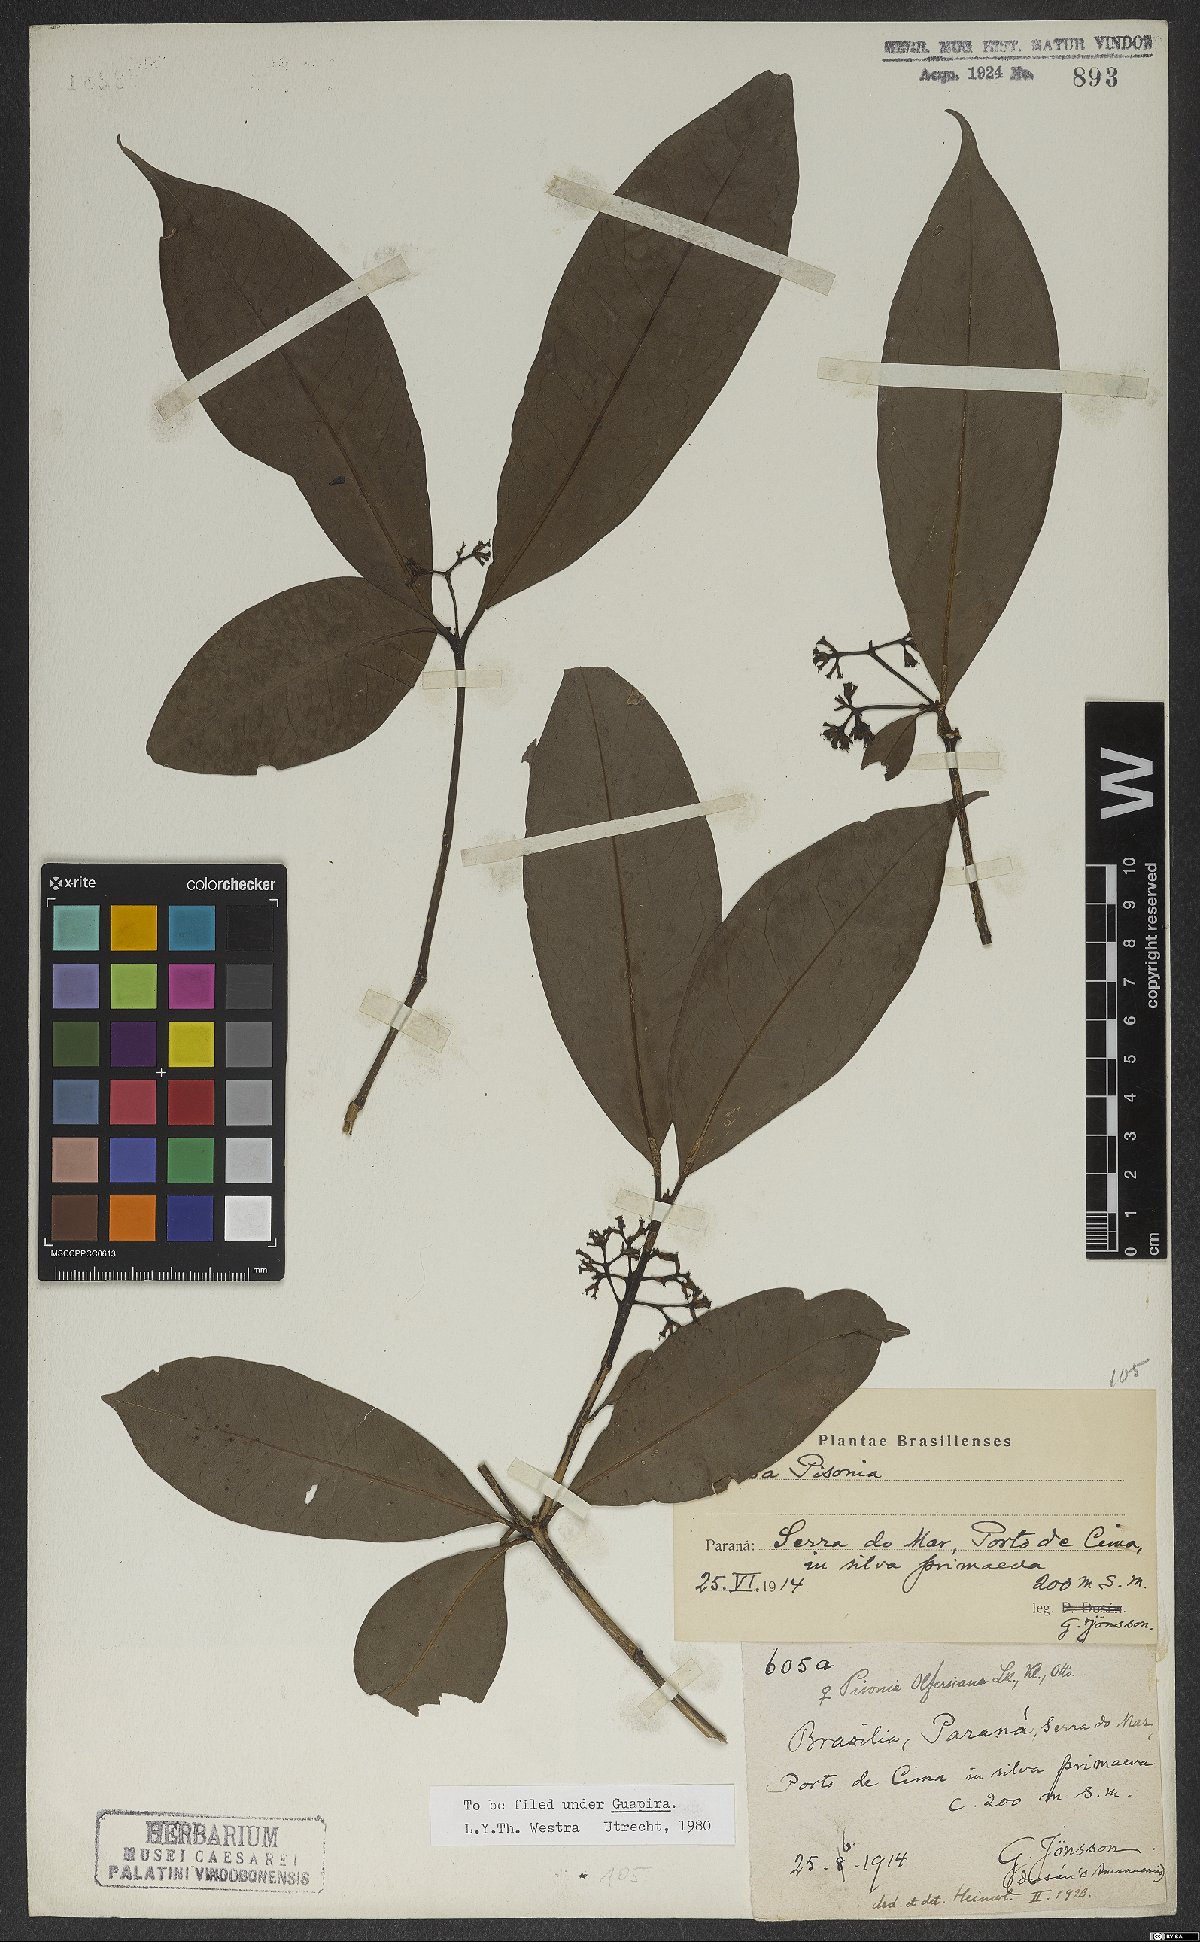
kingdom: Plantae
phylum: Tracheophyta
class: Magnoliopsida
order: Caryophyllales
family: Nyctaginaceae
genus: Guapira
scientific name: Guapira opposita
